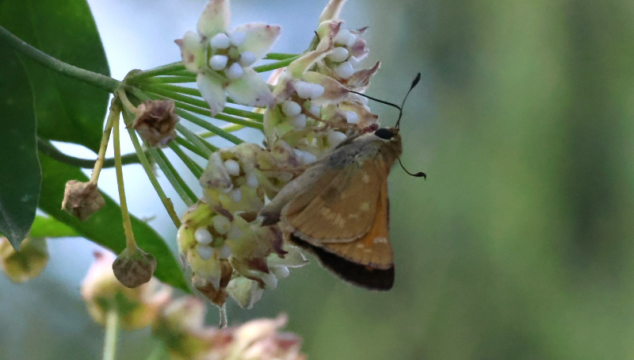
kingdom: Animalia
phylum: Arthropoda
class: Insecta
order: Lepidoptera
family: Hesperiidae
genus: Atalopedes
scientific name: Atalopedes campestris
